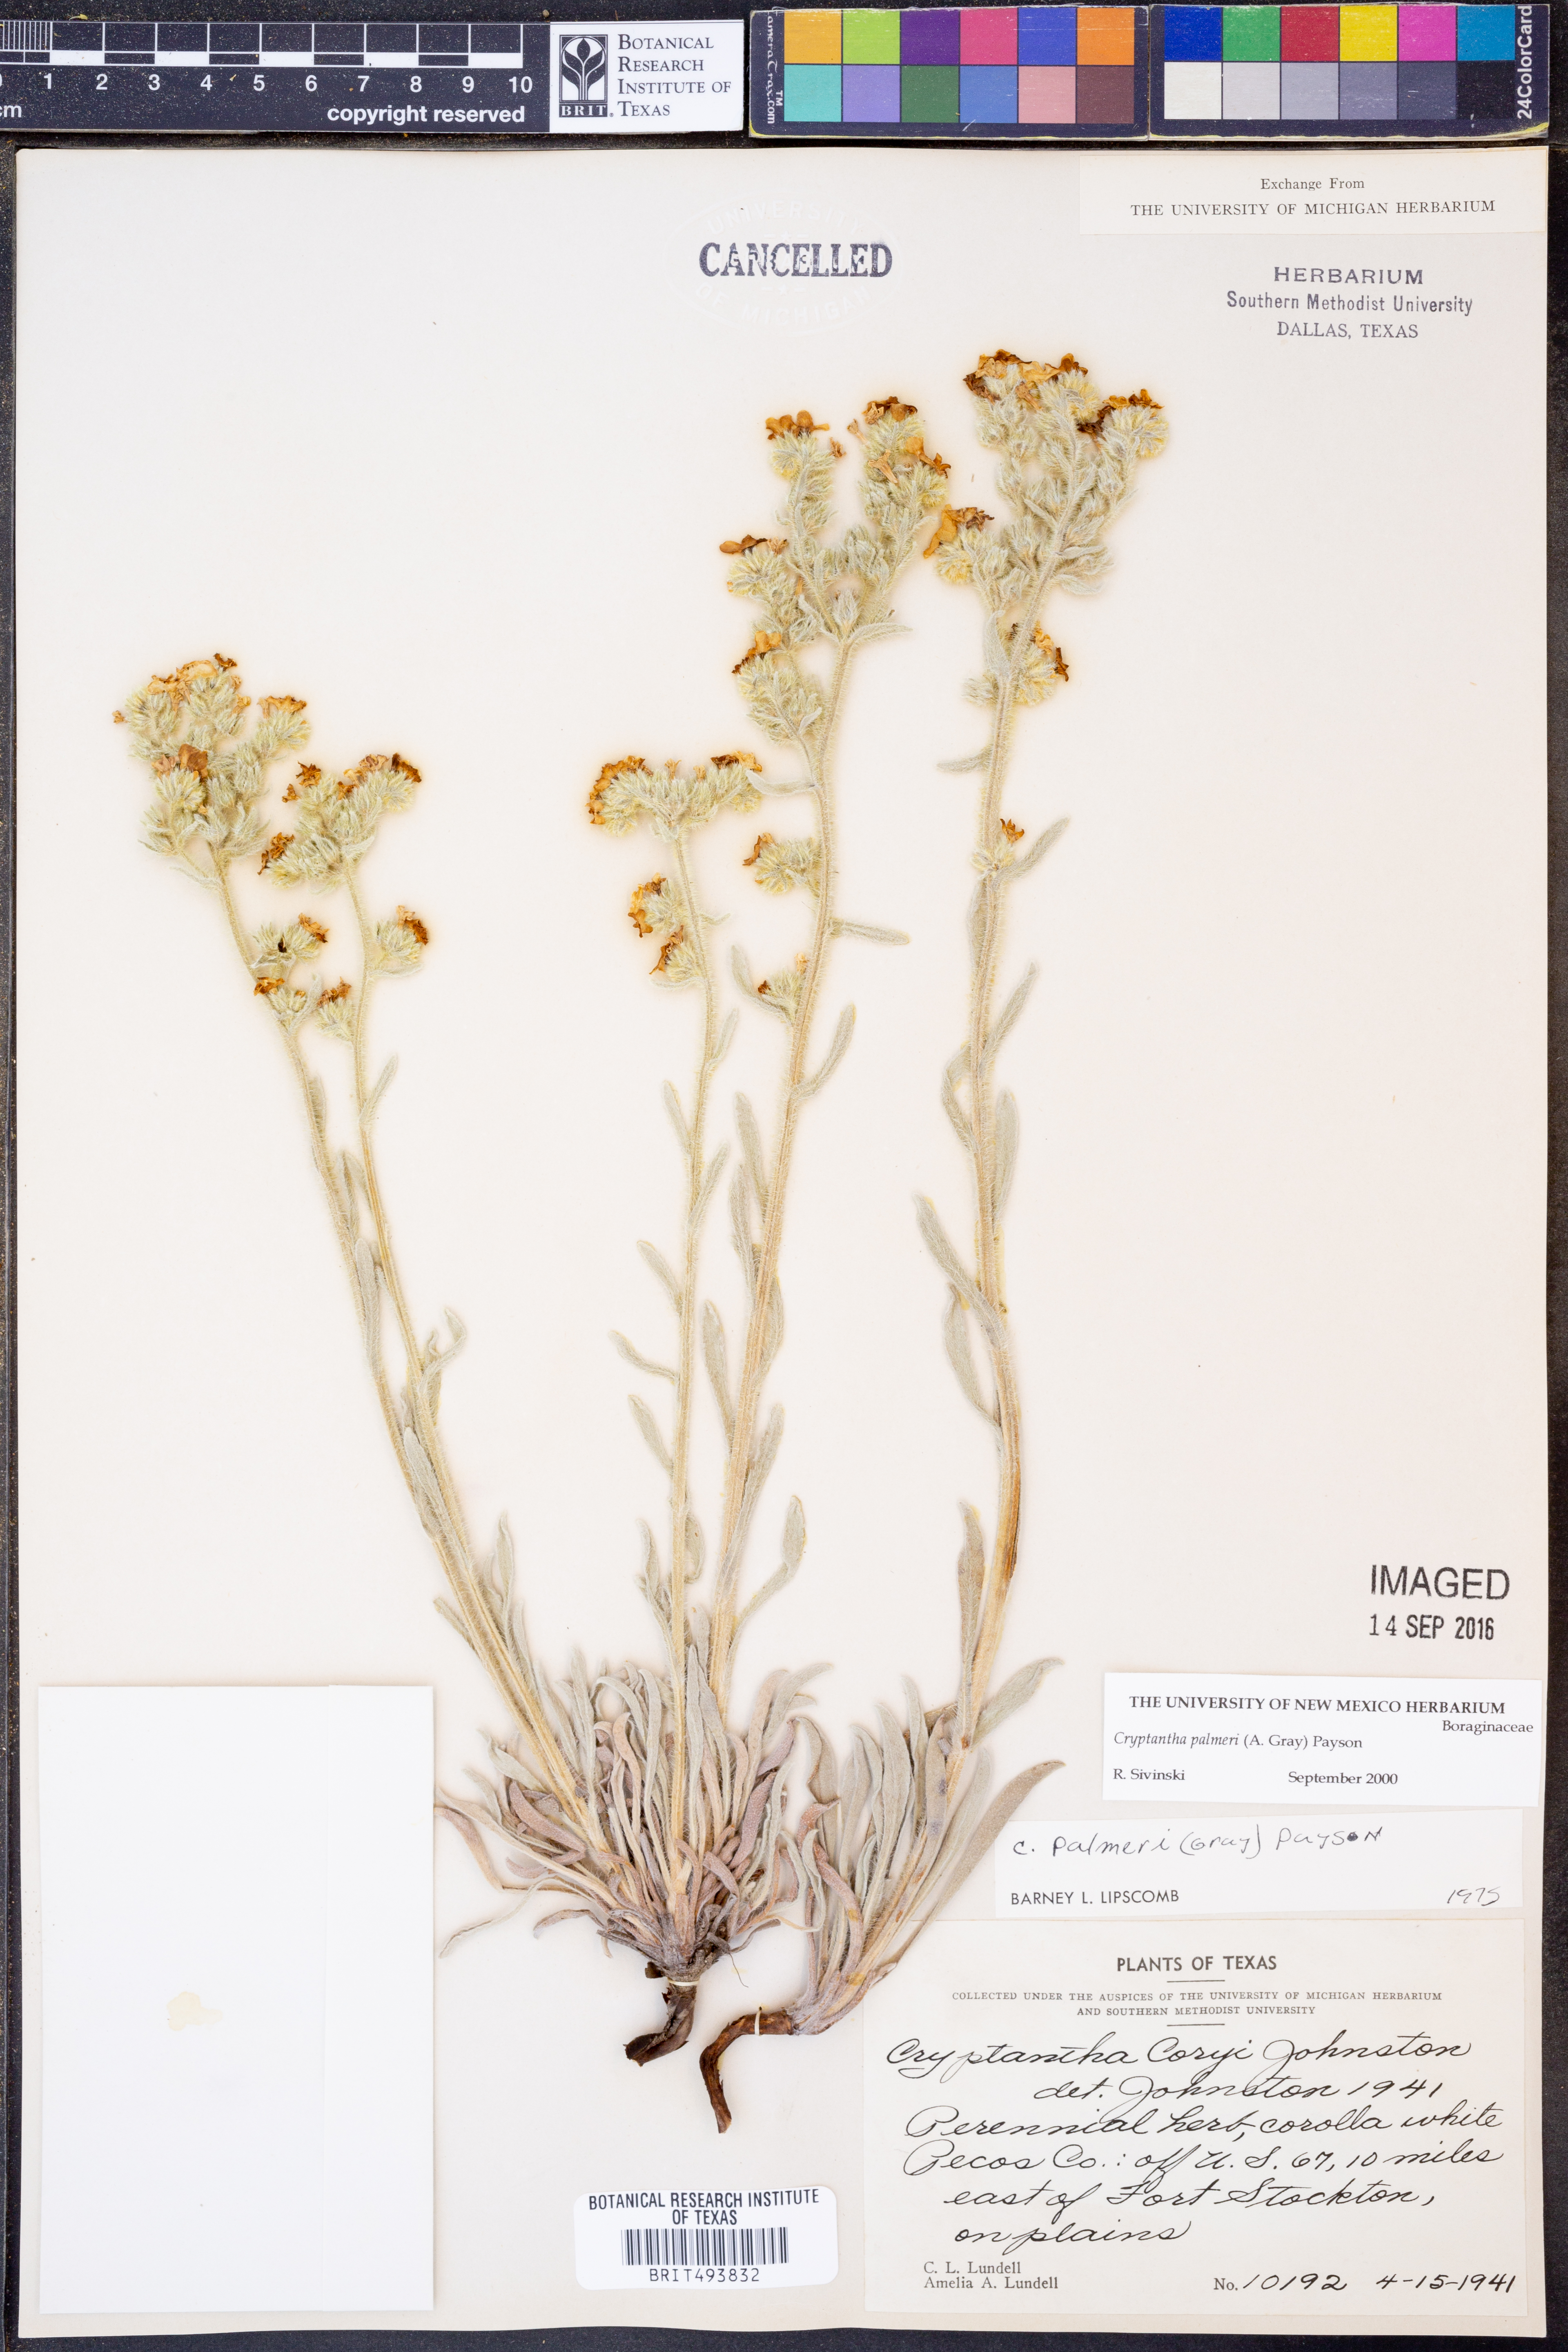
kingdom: Plantae
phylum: Tracheophyta
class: Magnoliopsida
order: Boraginales
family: Boraginaceae
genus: Oreocarya
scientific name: Oreocarya palmeri
